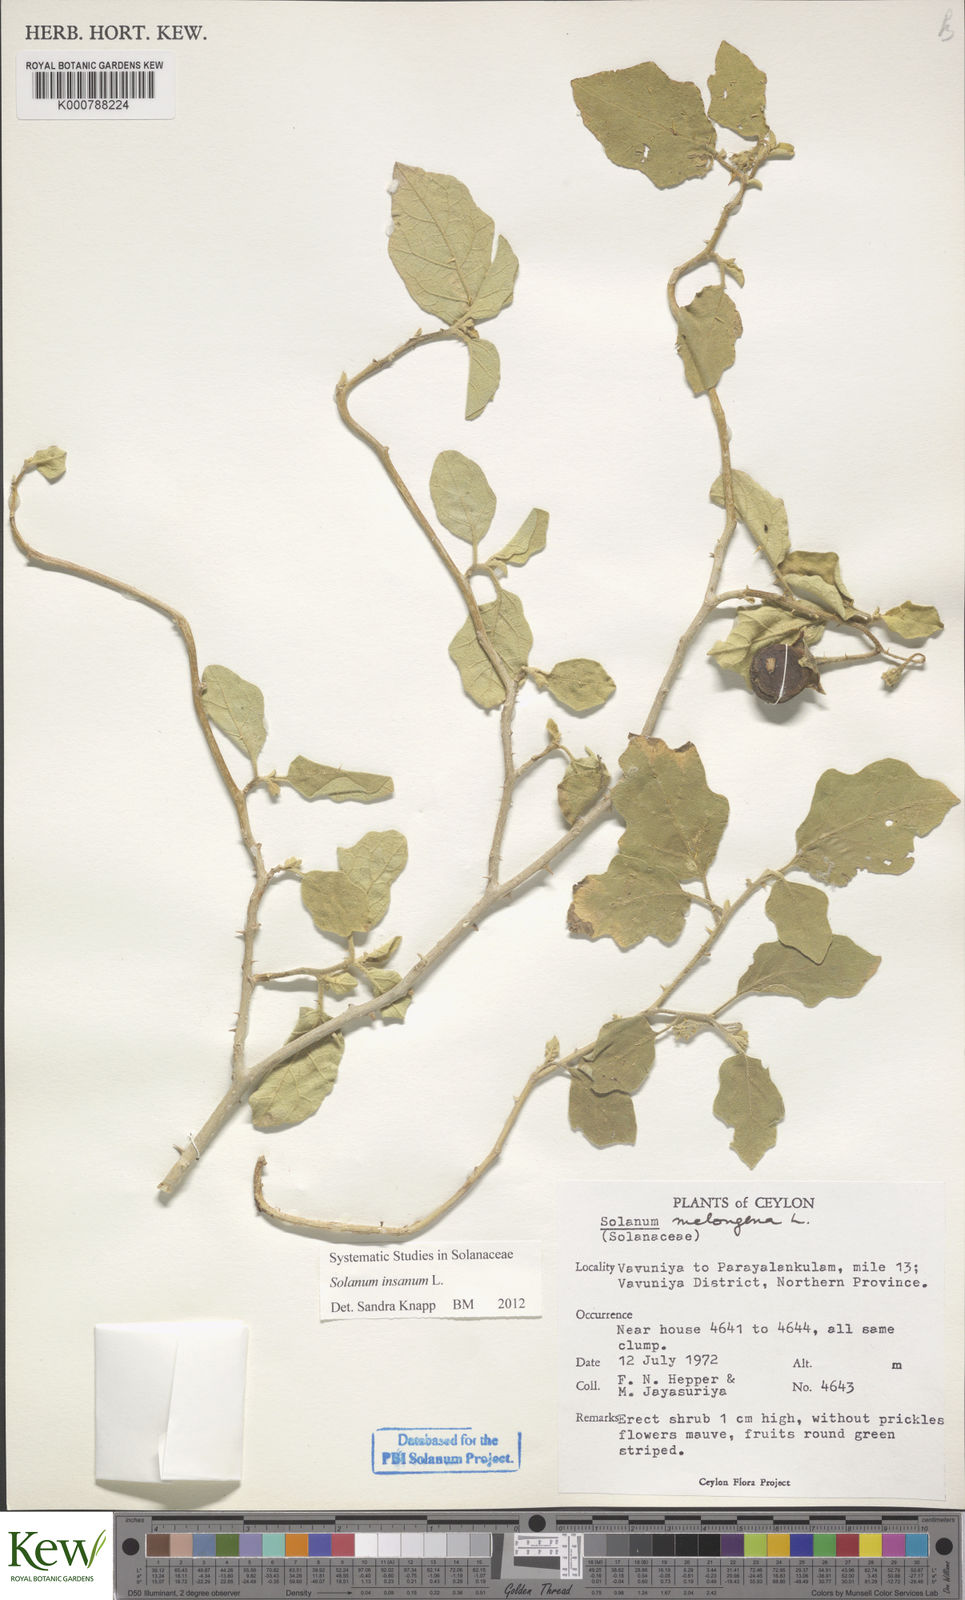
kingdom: Plantae
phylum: Tracheophyta
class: Magnoliopsida
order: Solanales
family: Solanaceae
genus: Solanum
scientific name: Solanum insanum
